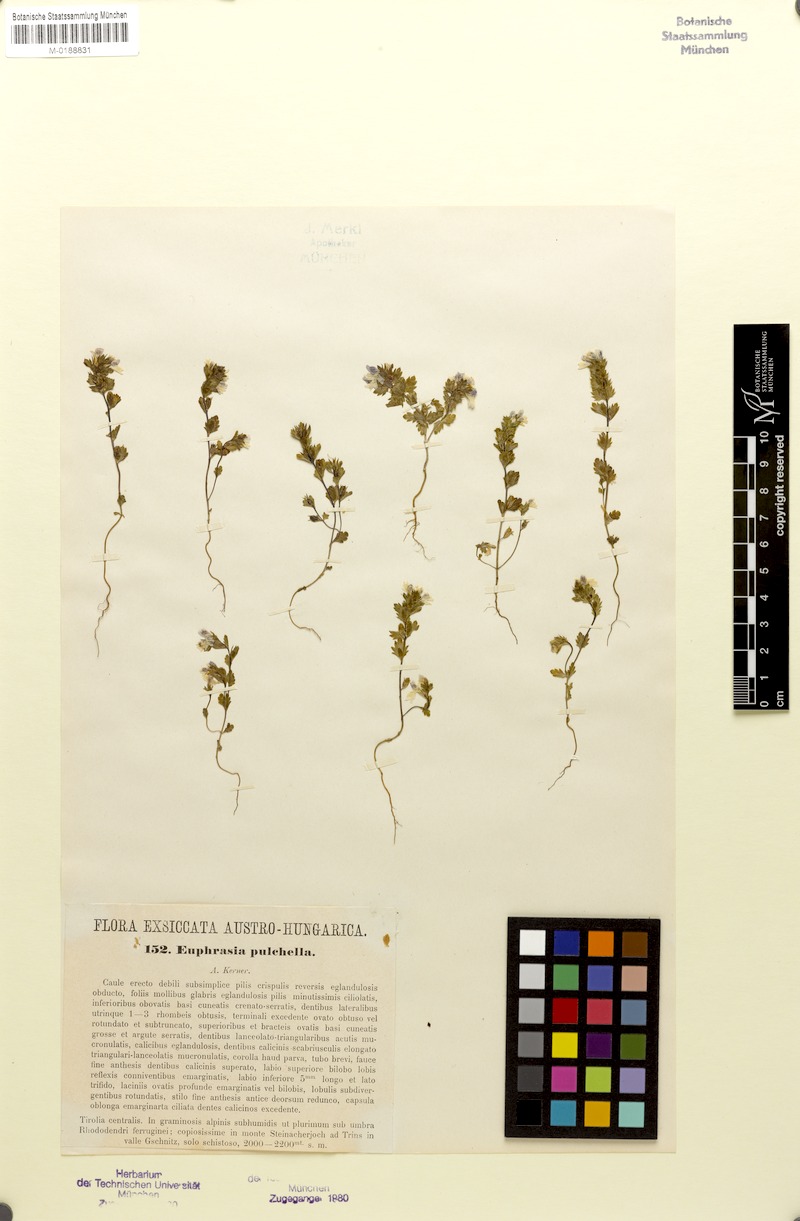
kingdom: Plantae
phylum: Tracheophyta
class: Magnoliopsida
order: Lamiales
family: Orobanchaceae
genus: Euphrasia
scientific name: Euphrasia pulchella
